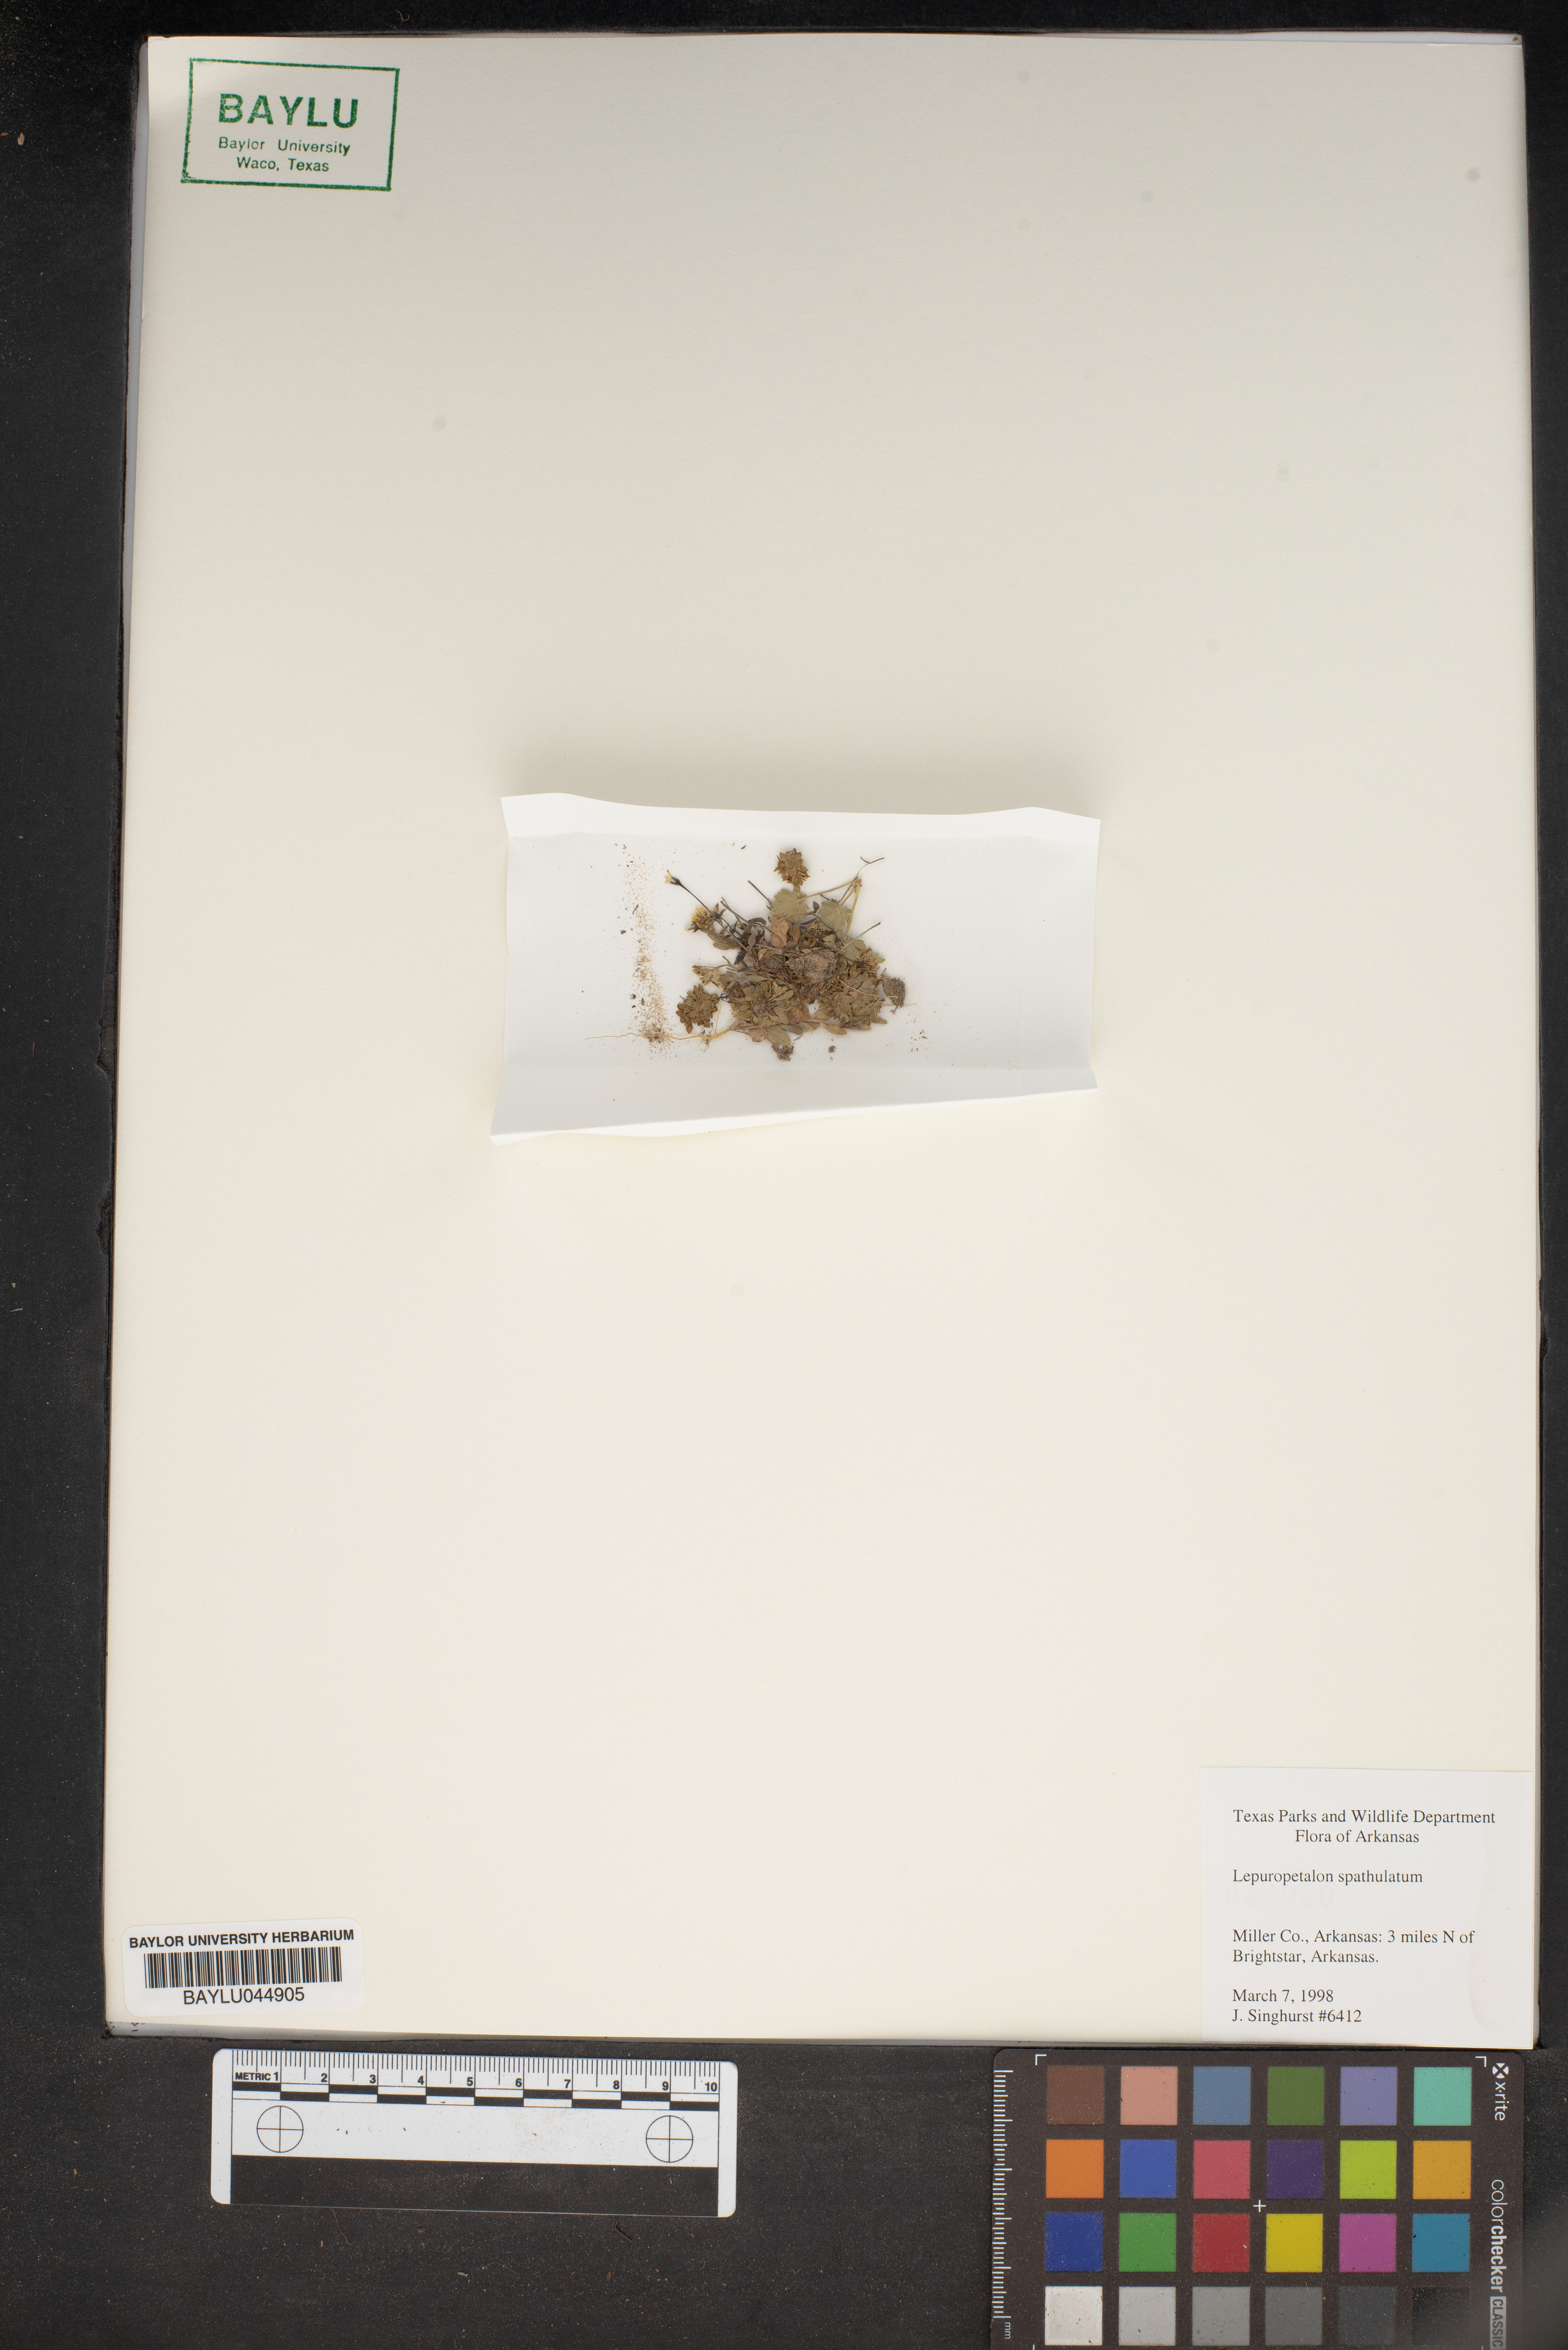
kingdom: Plantae
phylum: Tracheophyta
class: Magnoliopsida
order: Celastrales
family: Parnassiaceae
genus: Lepuropetalon
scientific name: Lepuropetalon spathulatum
